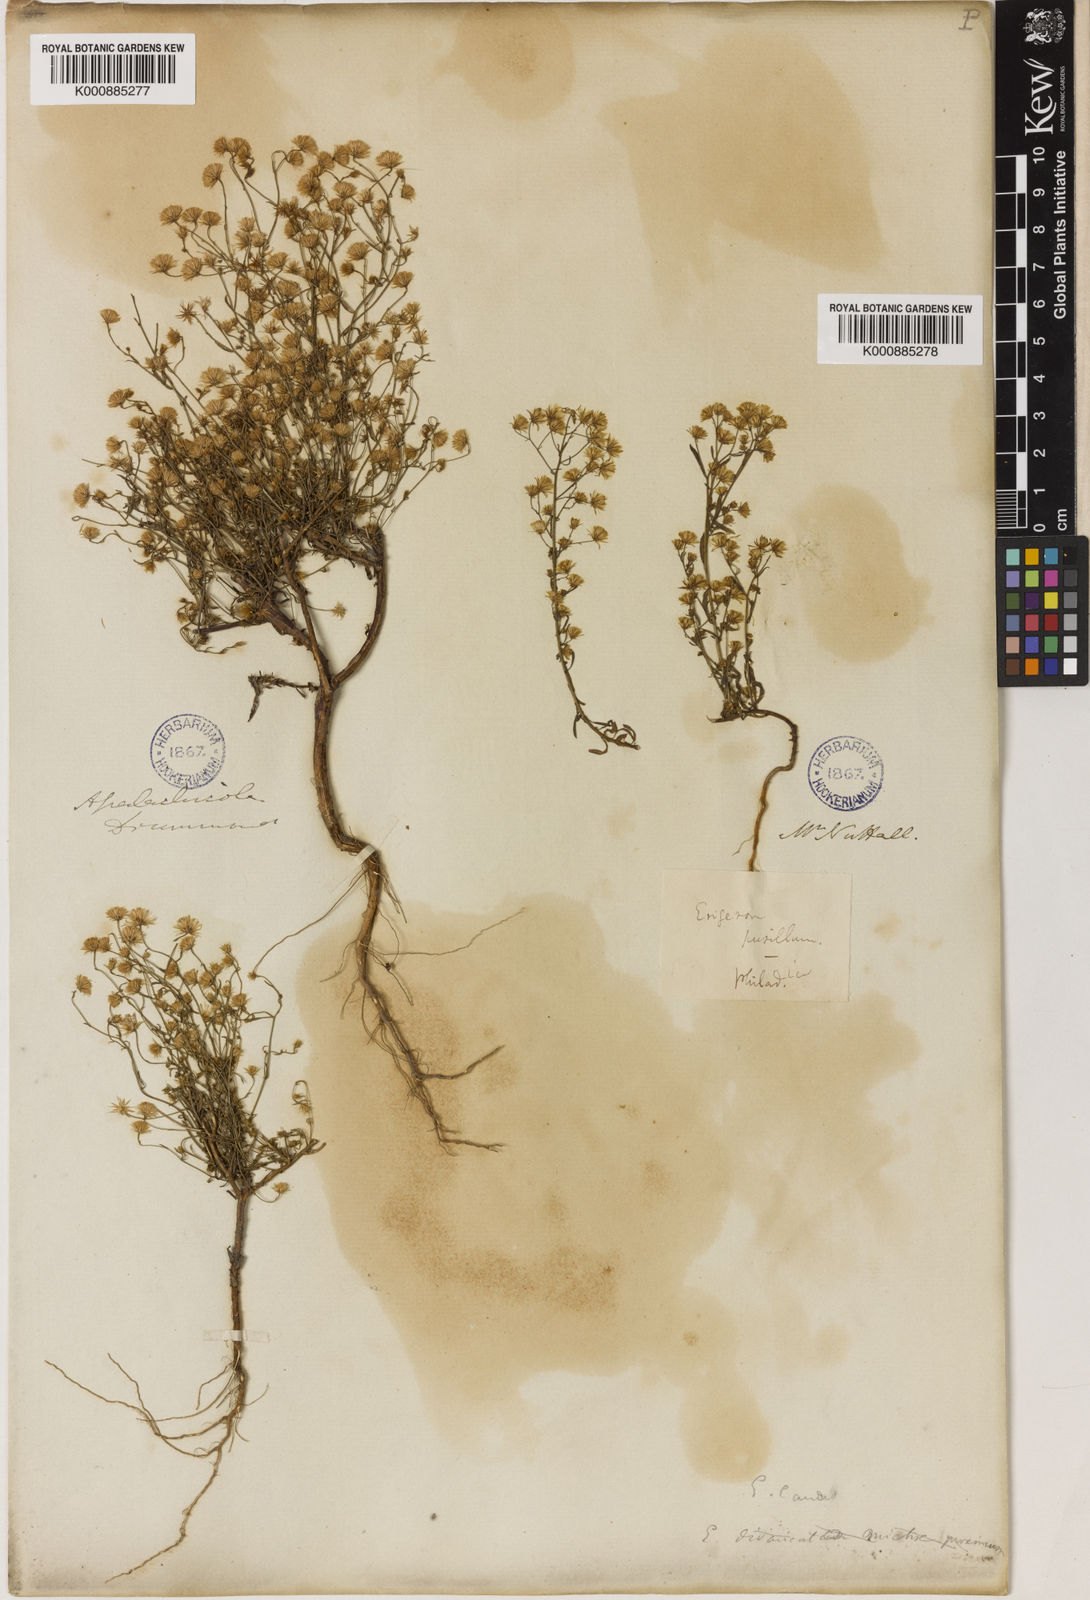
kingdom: Plantae
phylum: Tracheophyta
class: Magnoliopsida
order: Asterales
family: Asteraceae
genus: Erigeron
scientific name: Erigeron Conyza pusilla
